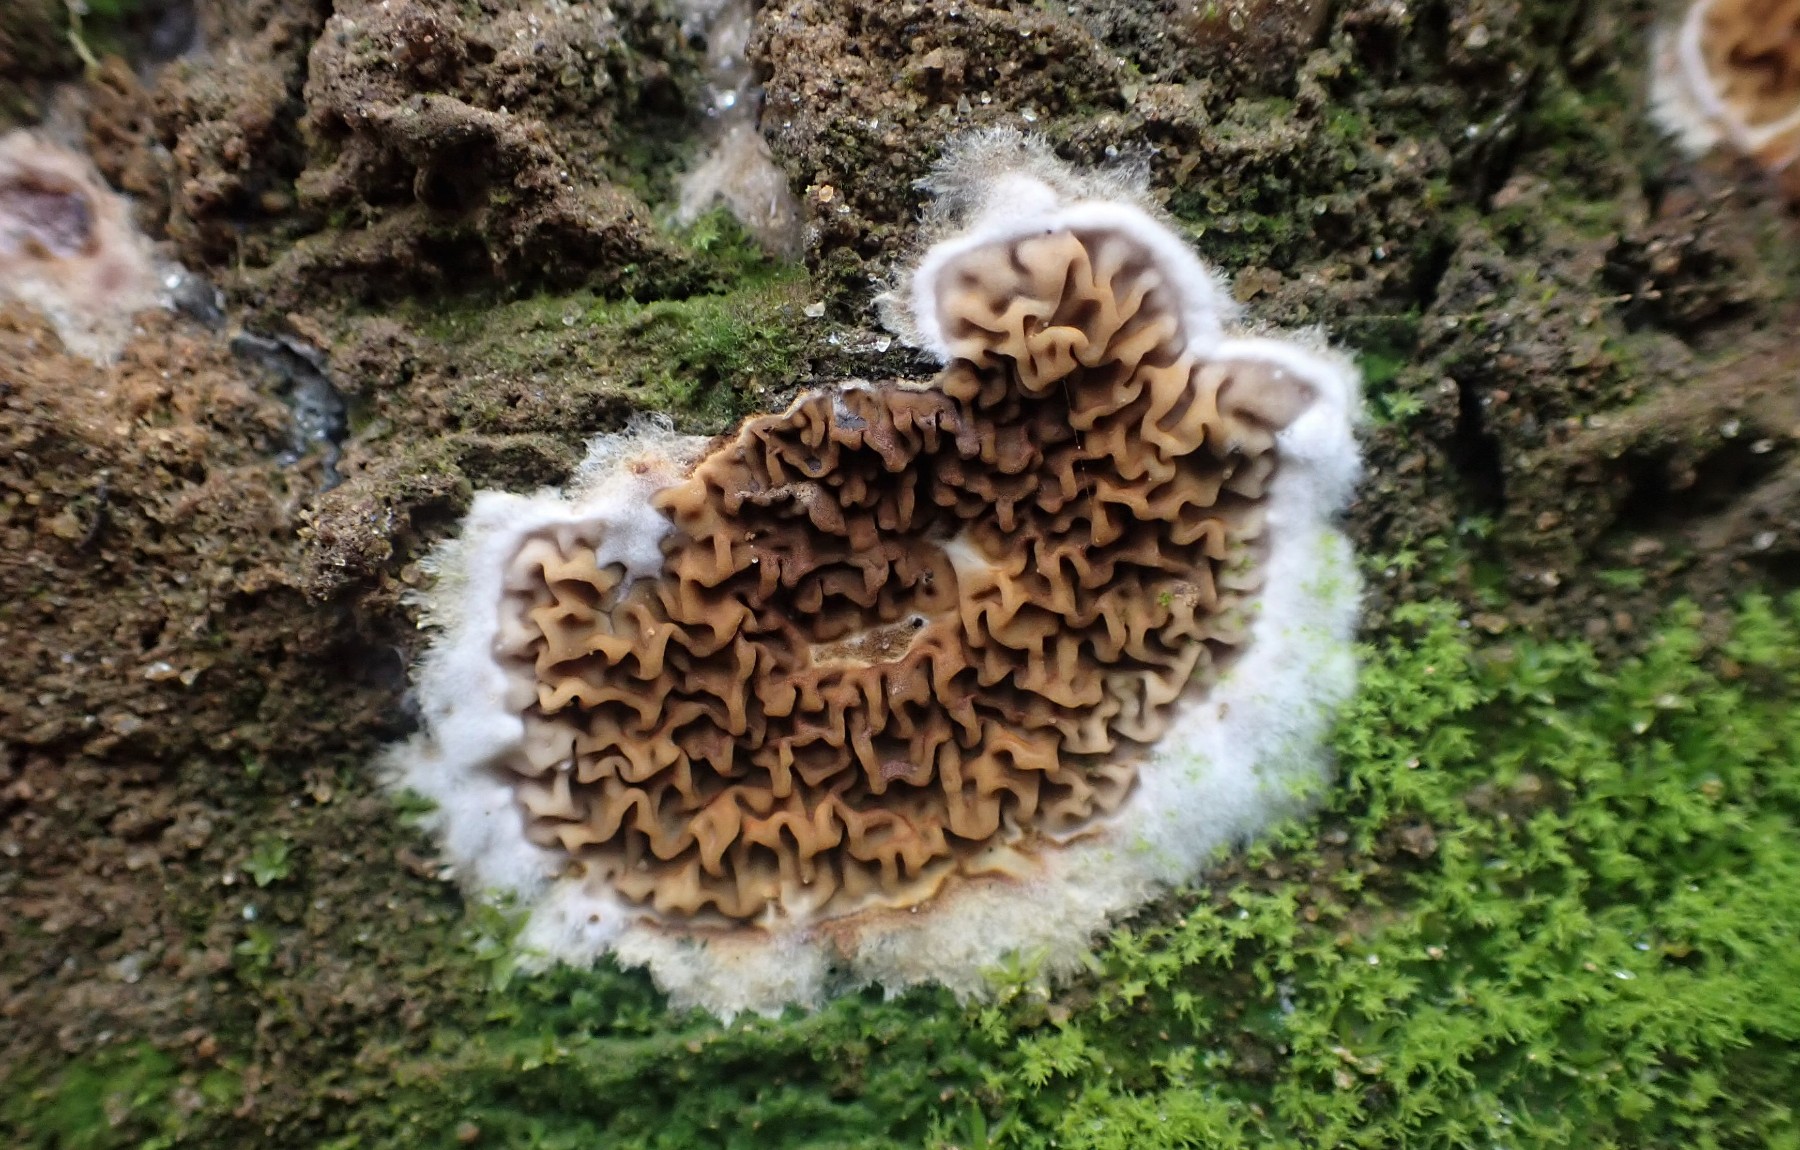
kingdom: Fungi
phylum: Basidiomycota
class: Agaricomycetes
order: Boletales
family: Serpulaceae
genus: Serpula
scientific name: Serpula himantioides
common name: tyndkødet hussvamp
